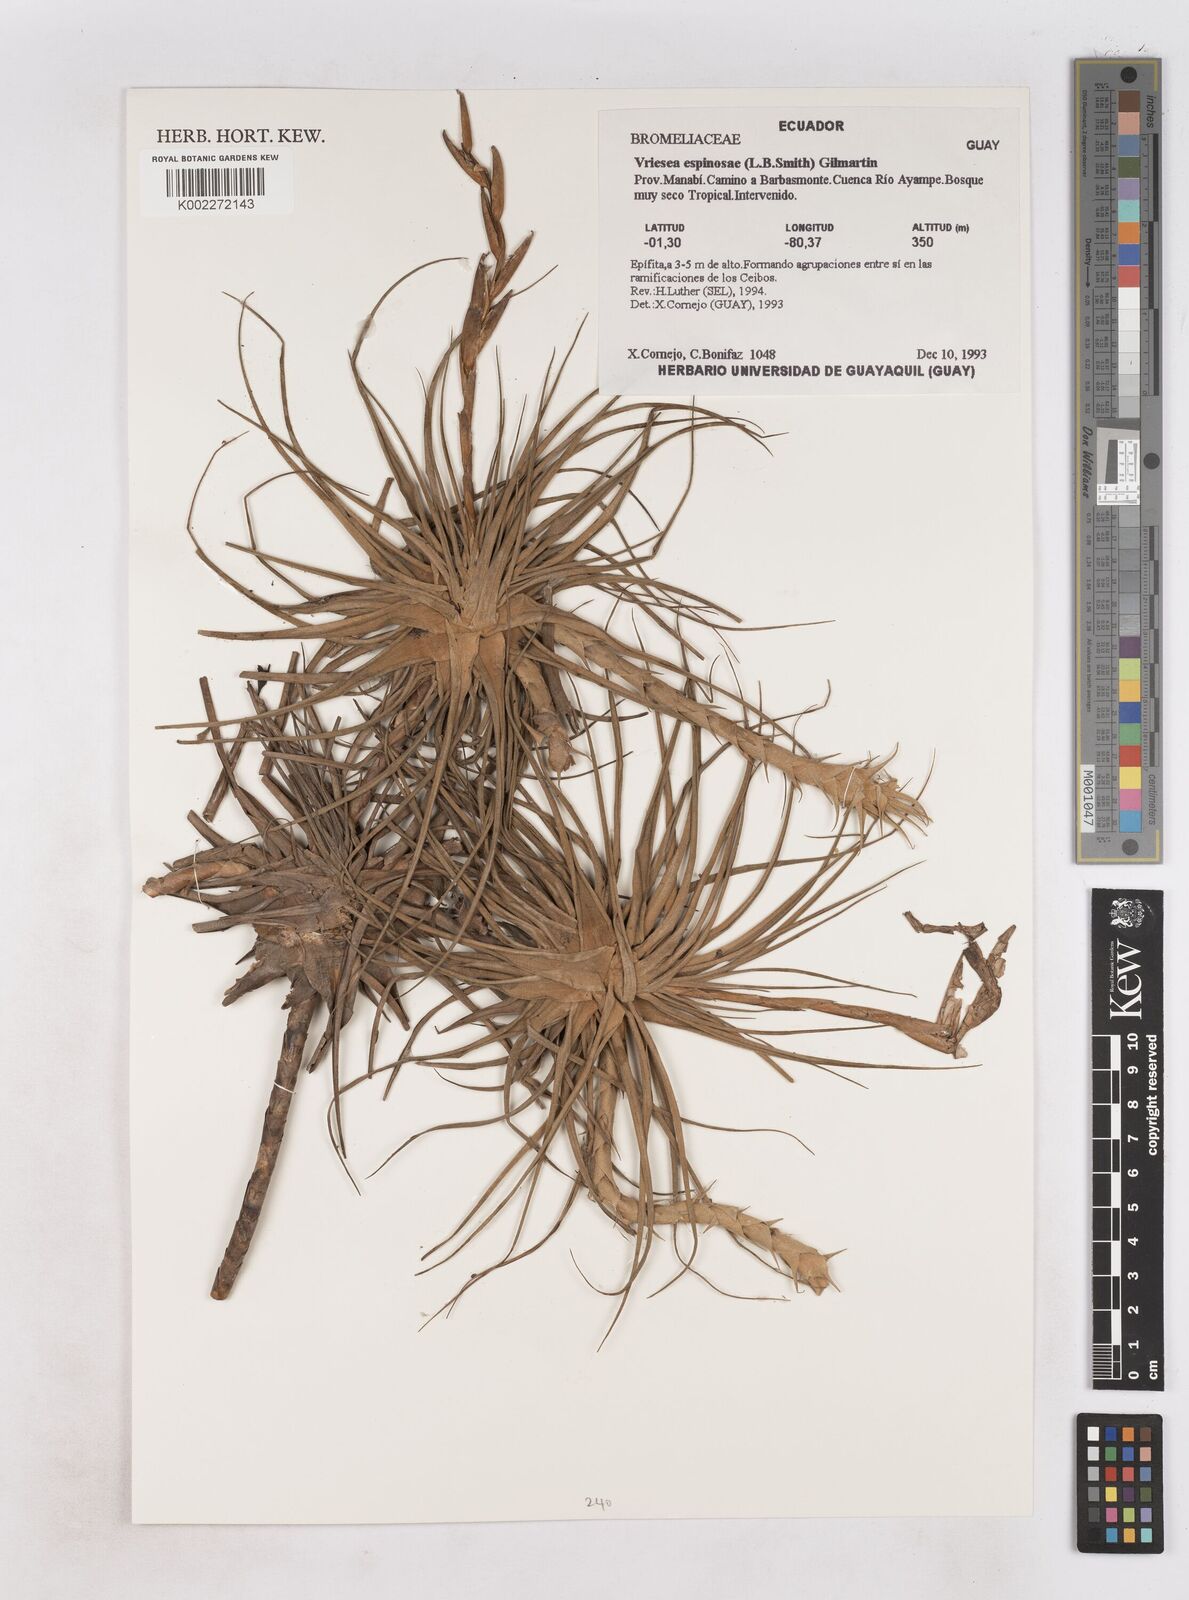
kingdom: Plantae
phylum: Tracheophyta
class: Liliopsida
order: Poales
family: Bromeliaceae
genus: Tillandsia
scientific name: Tillandsia espinosae
